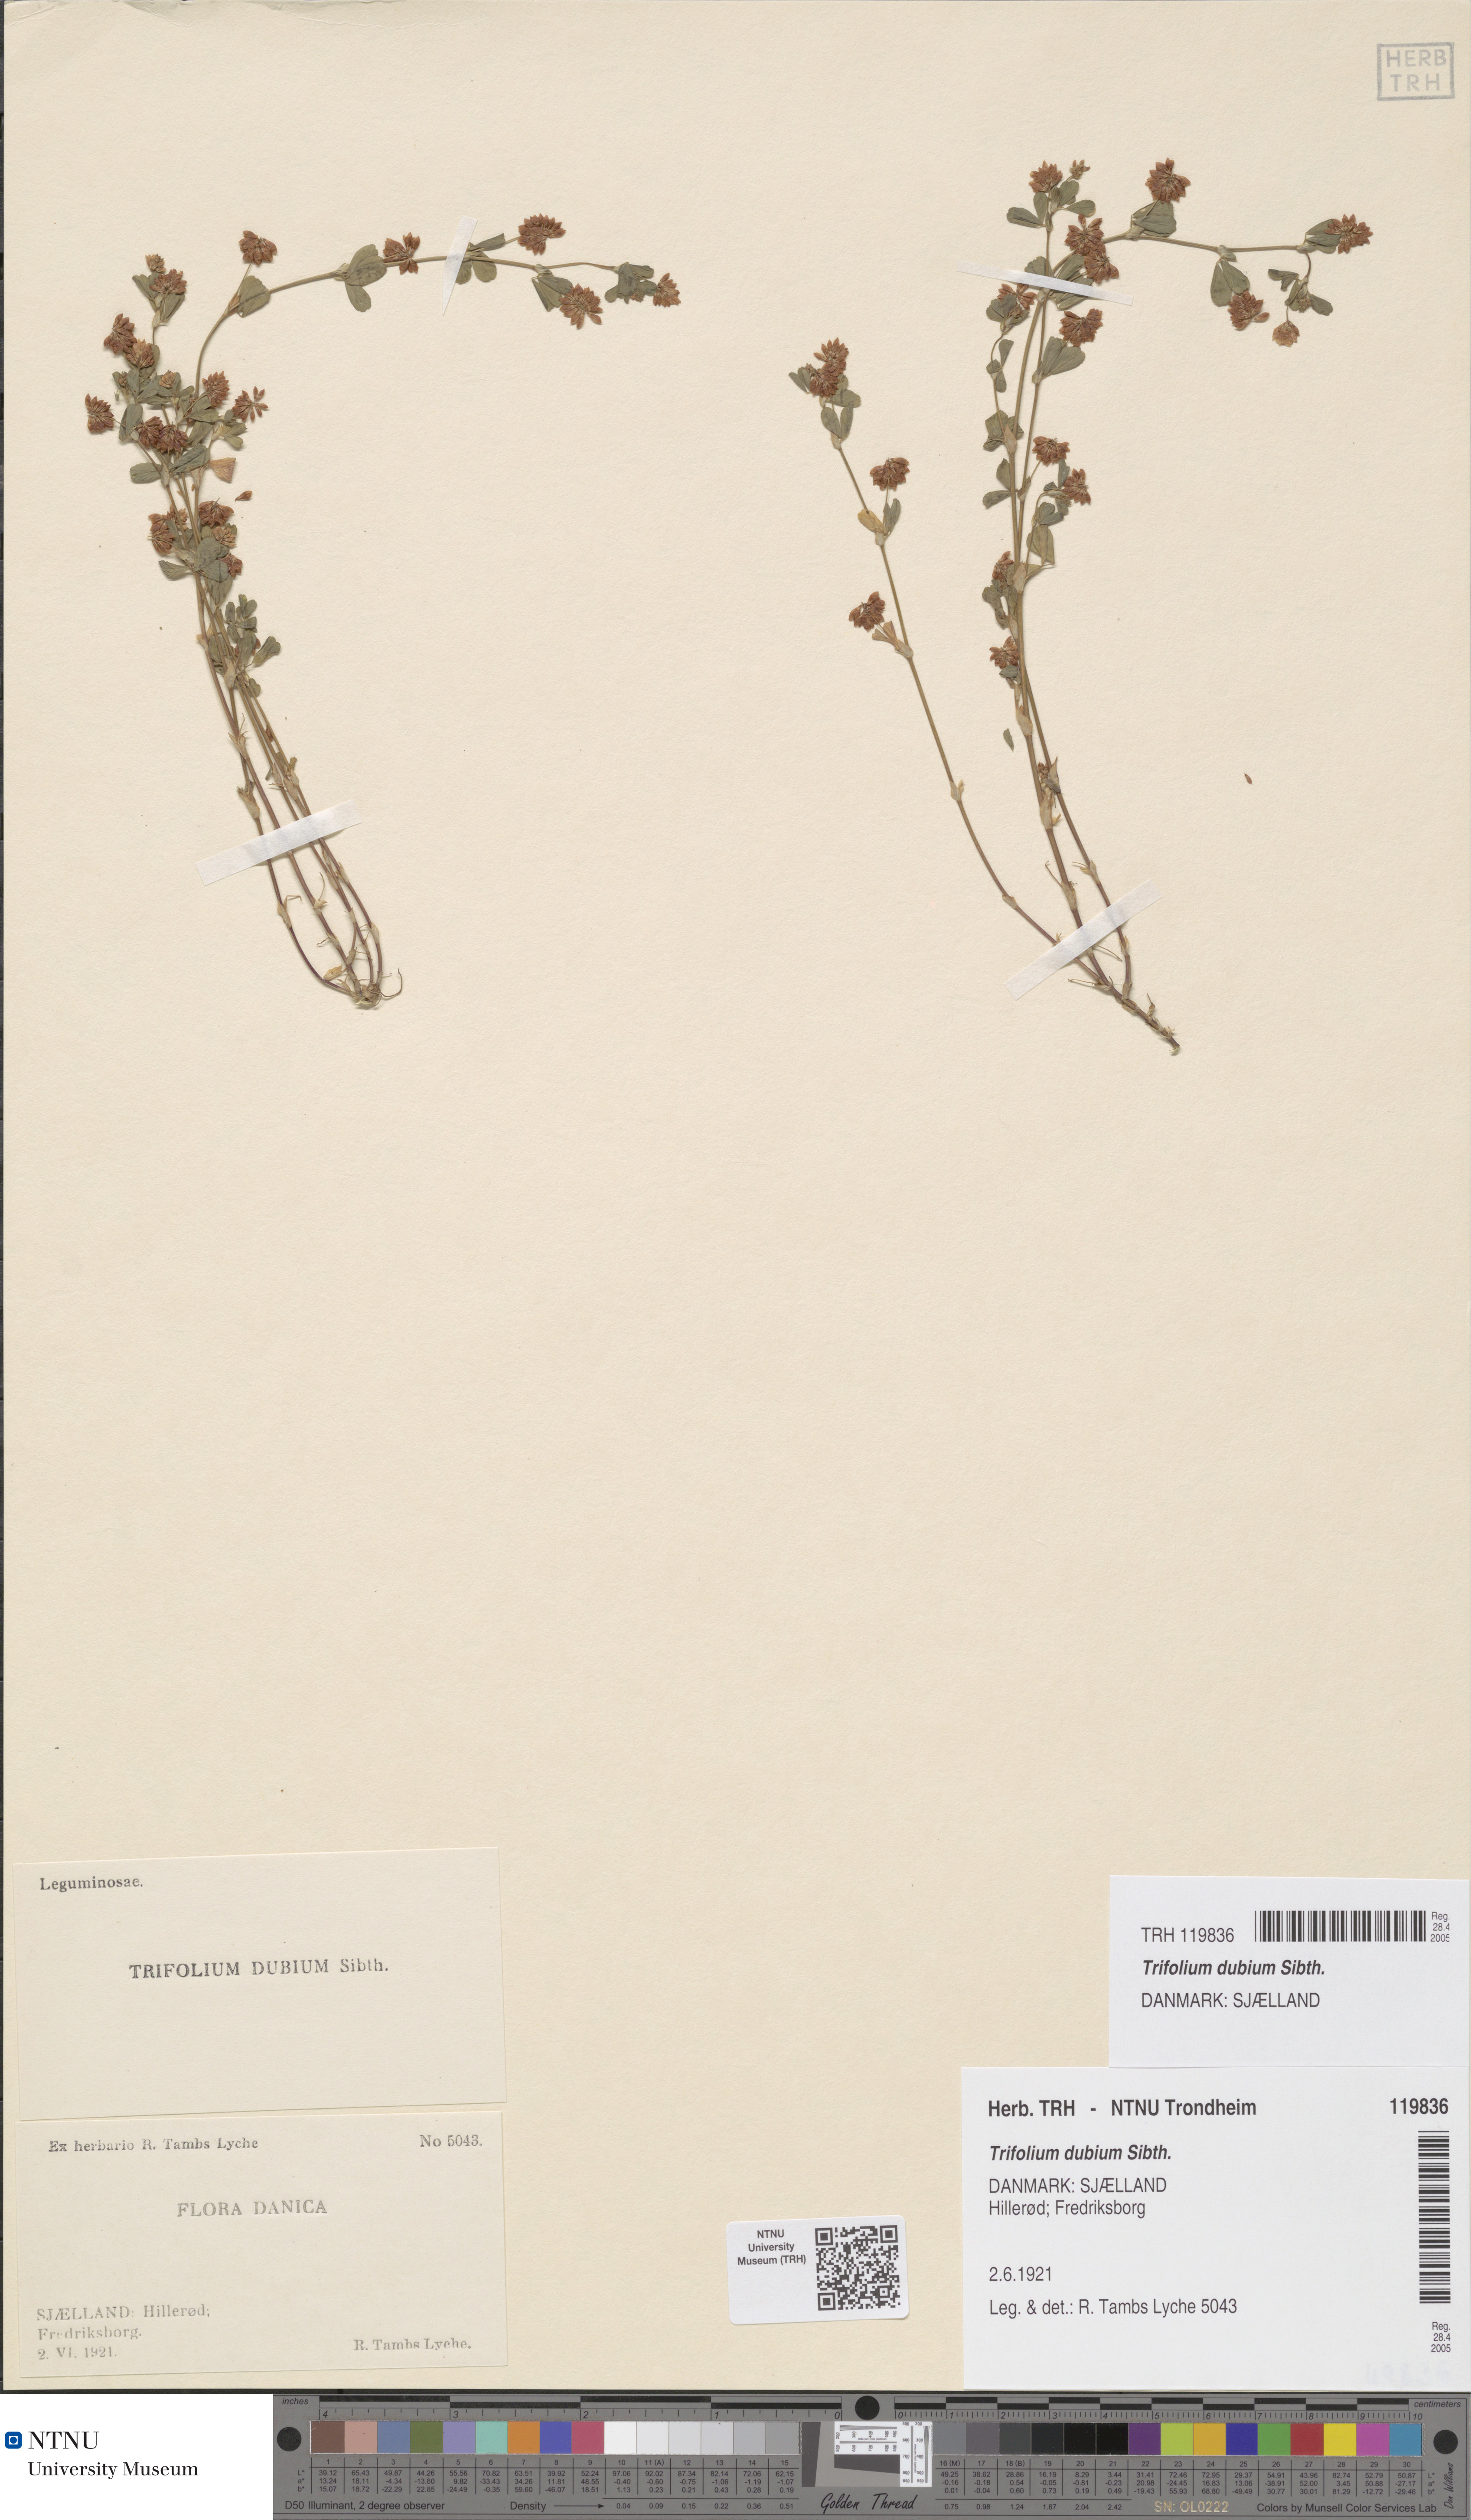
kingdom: Plantae
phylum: Tracheophyta
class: Magnoliopsida
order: Fabales
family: Fabaceae
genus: Trifolium
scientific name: Trifolium dubium
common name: Suckling clover
